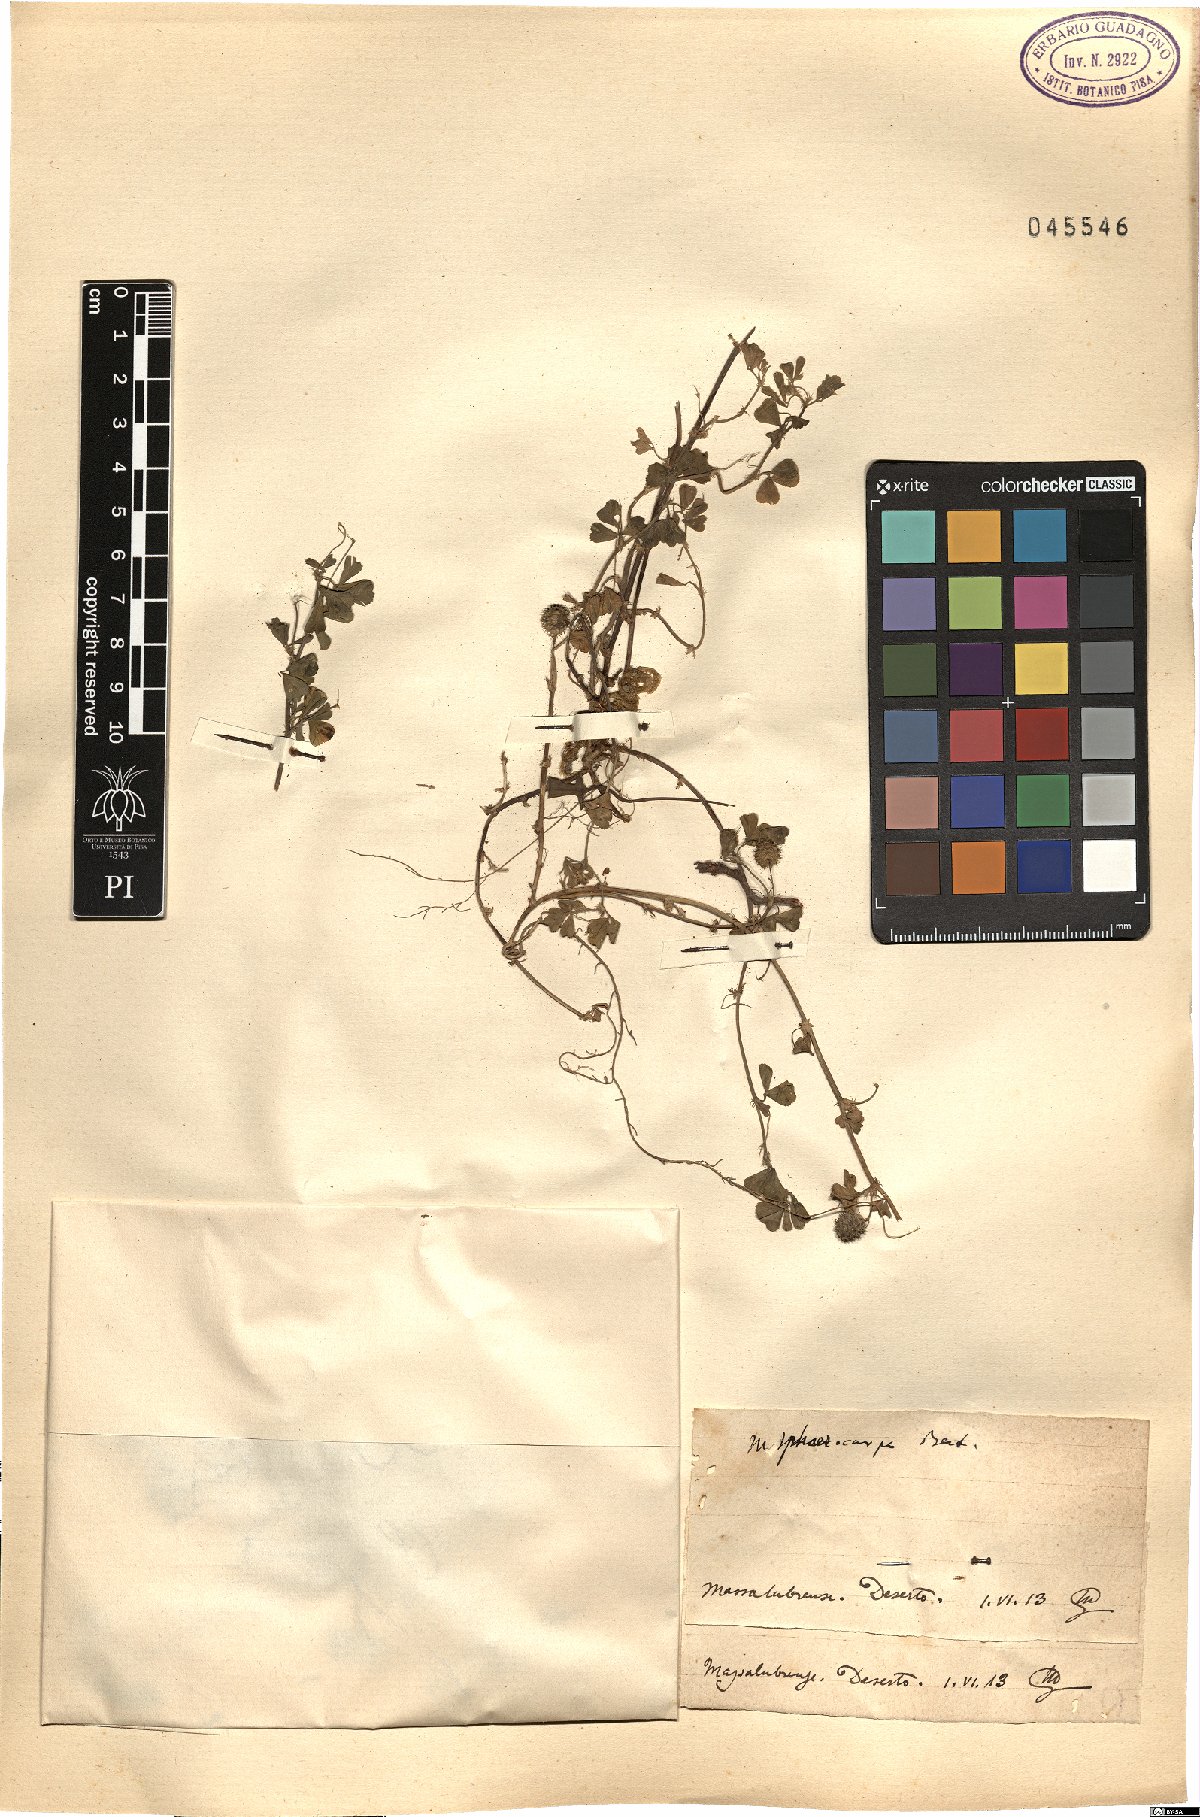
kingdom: Plantae
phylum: Tracheophyta
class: Magnoliopsida
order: Fabales
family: Fabaceae
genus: Medicago
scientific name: Medicago sphaerocarpos
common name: Sphere medic
